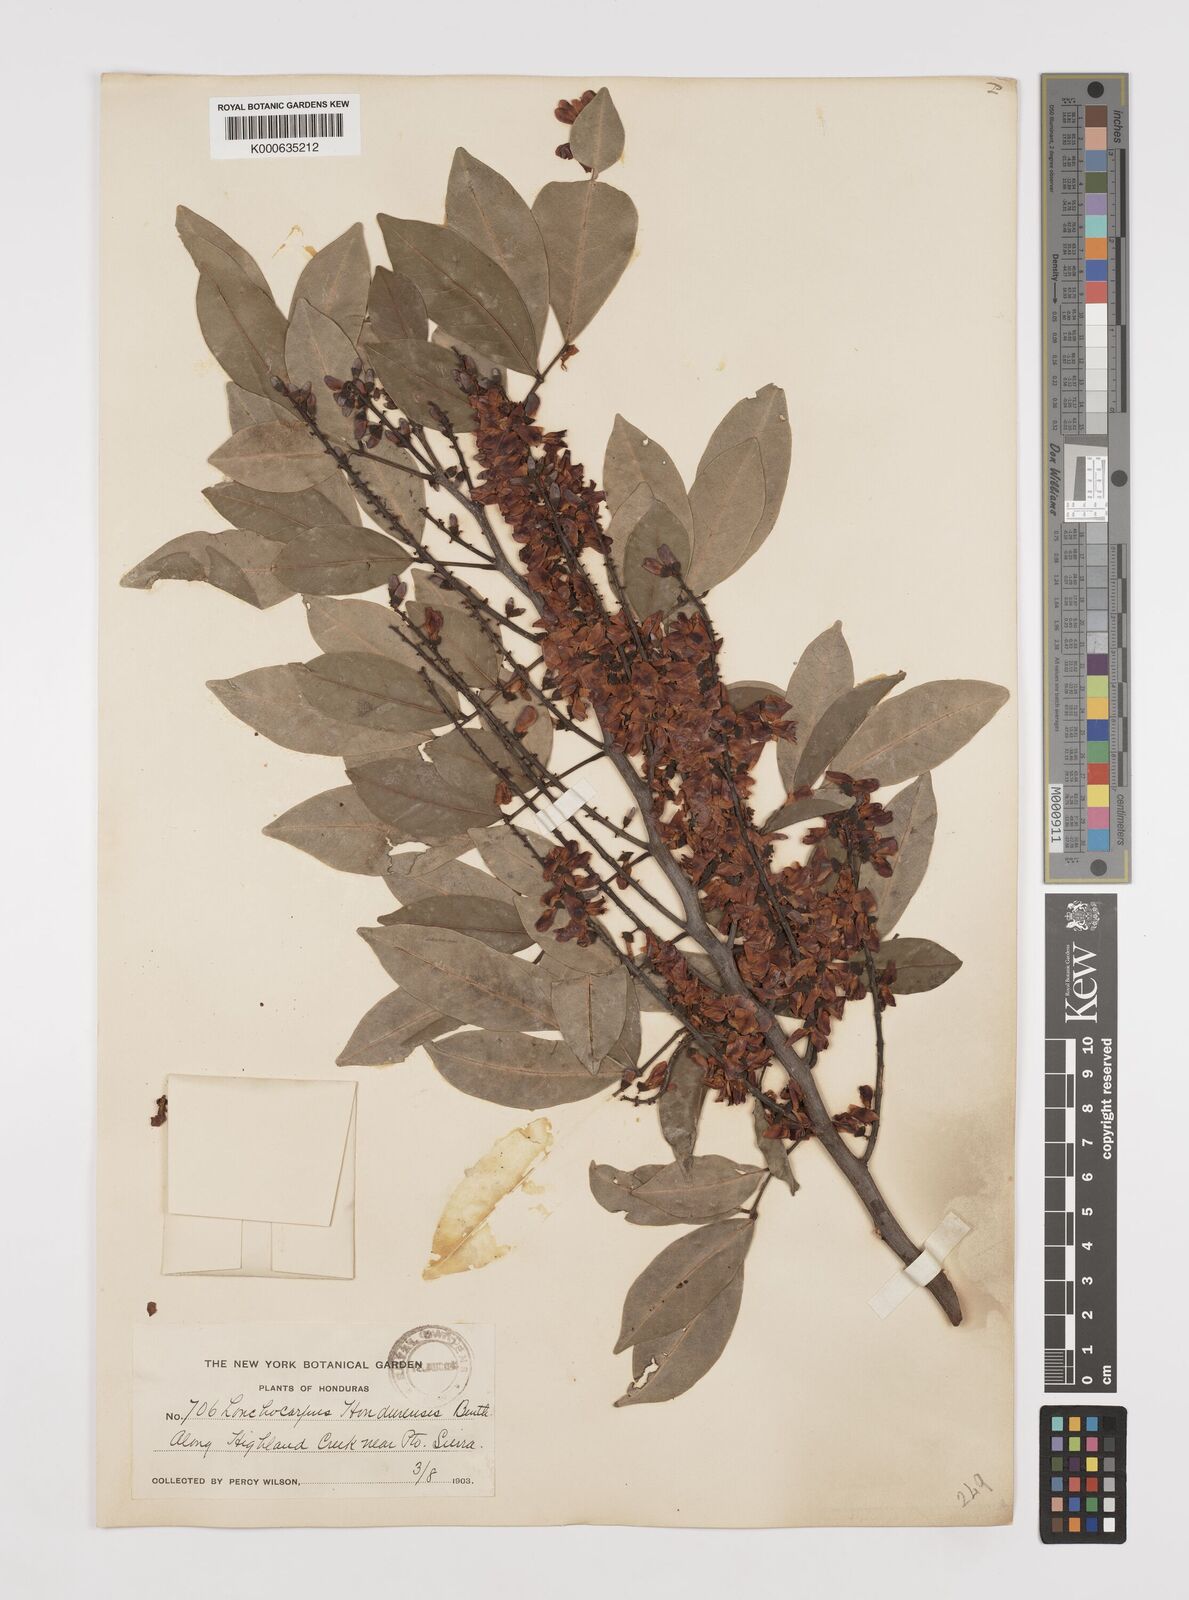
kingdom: Plantae
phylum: Tracheophyta
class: Magnoliopsida
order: Fabales
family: Fabaceae
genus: Lonchocarpus
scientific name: Lonchocarpus hondurensis
